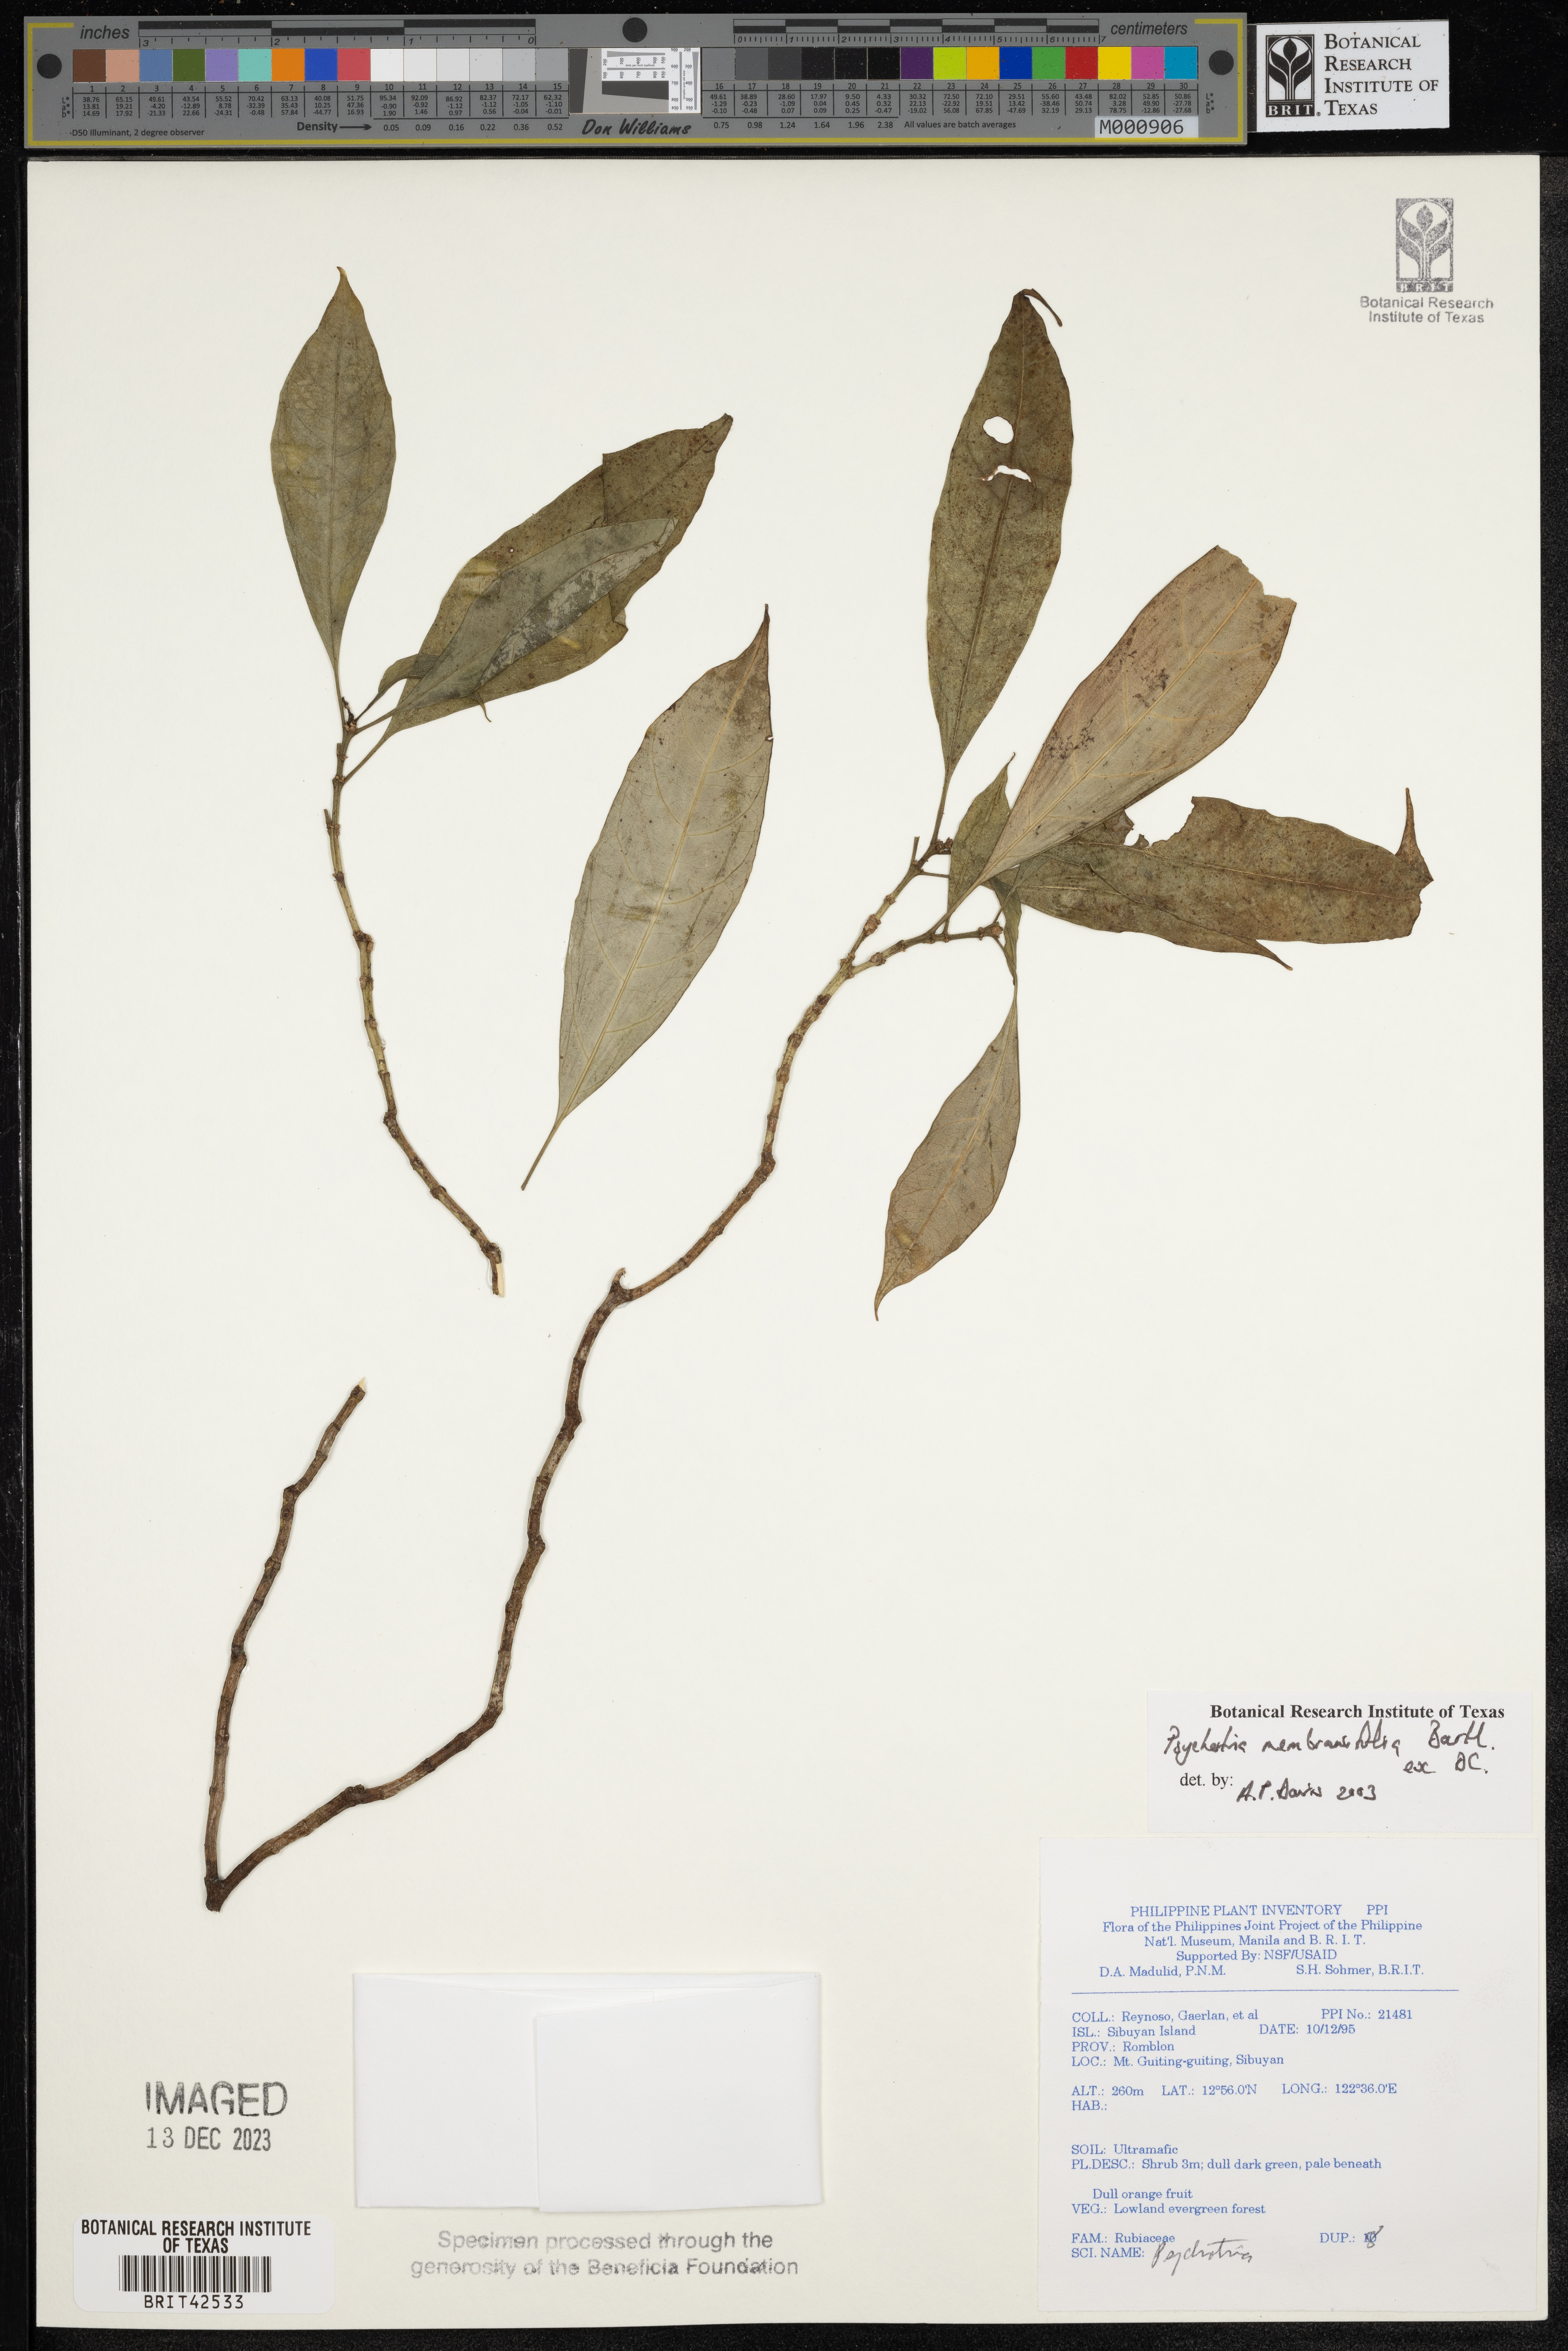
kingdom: Plantae
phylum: Tracheophyta
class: Magnoliopsida
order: Gentianales
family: Rubiaceae
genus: Eumachia
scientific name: Eumachia membranifolia
